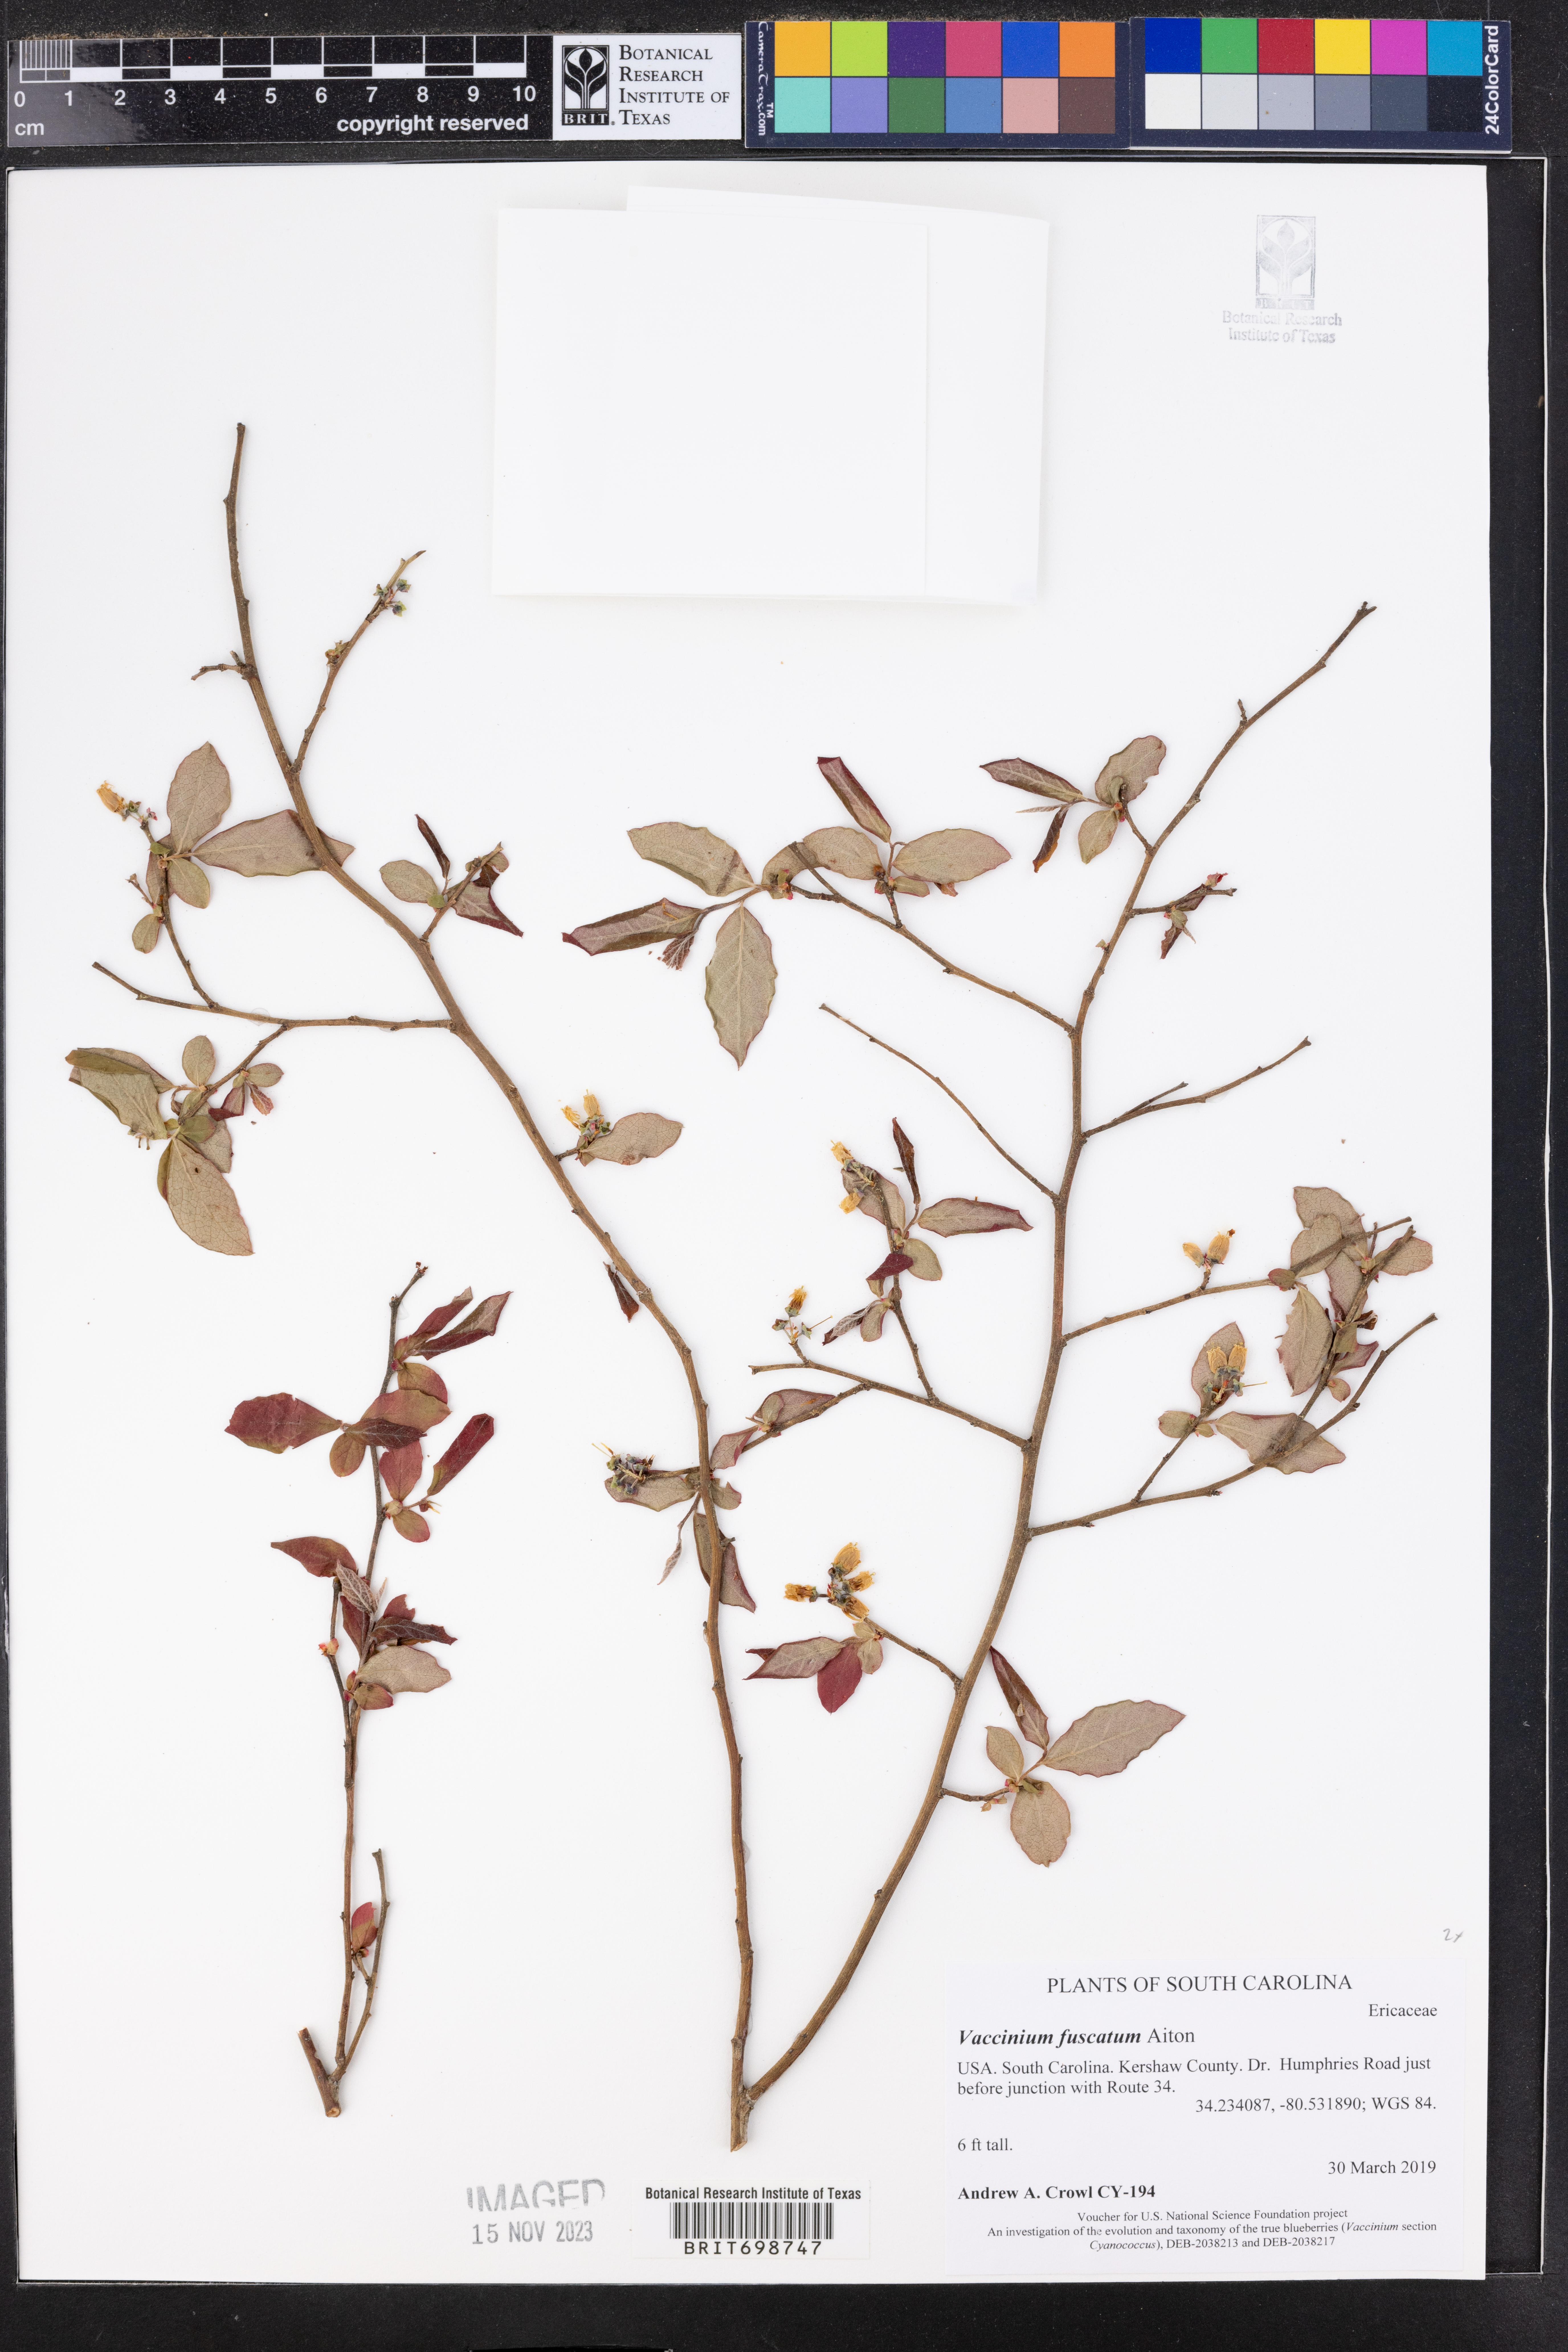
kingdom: Plantae
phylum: Tracheophyta
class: Magnoliopsida
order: Ericales
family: Ericaceae
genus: Vaccinium
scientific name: Vaccinium corymbosum
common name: Blueberry
